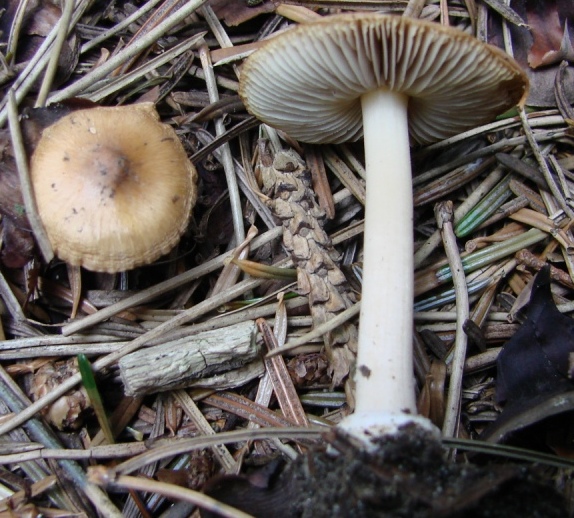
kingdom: Fungi
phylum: Basidiomycota
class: Agaricomycetes
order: Agaricales
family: Inocybaceae
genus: Inocybe
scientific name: Inocybe mixtilis
